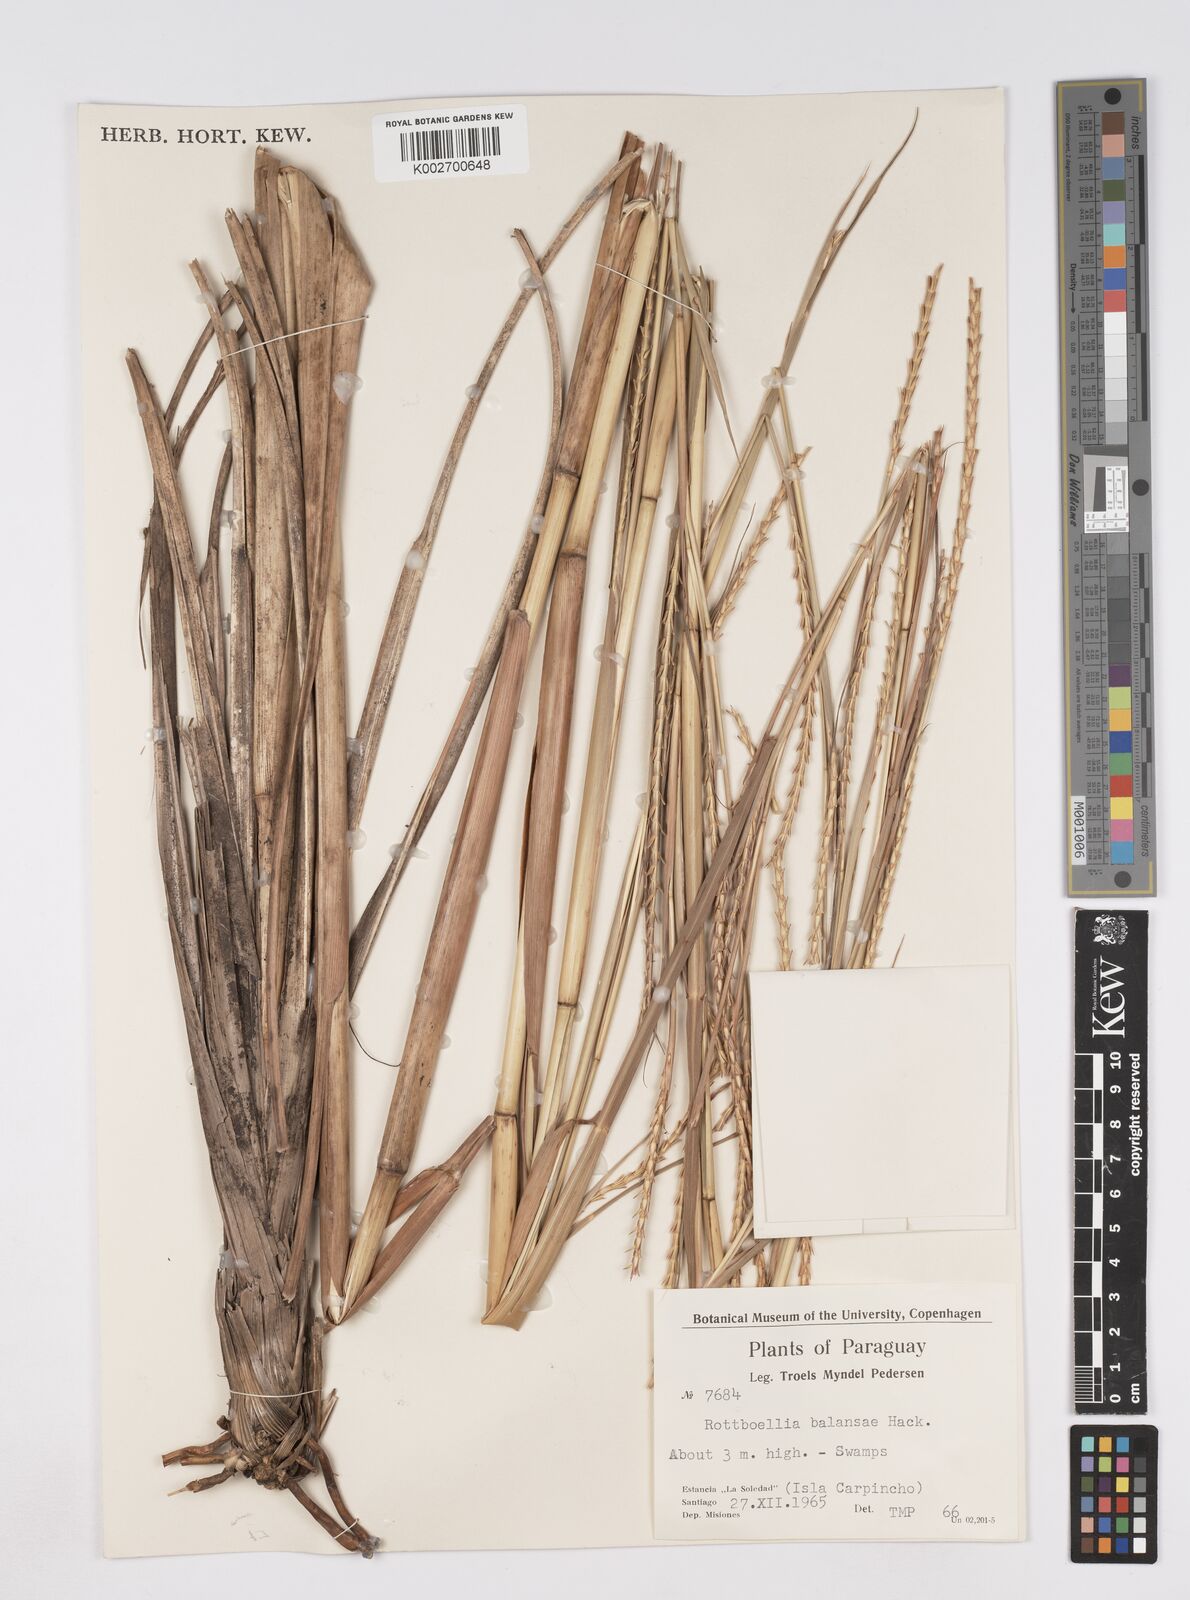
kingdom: Plantae
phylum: Tracheophyta
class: Liliopsida
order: Poales
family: Poaceae
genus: Rottboellia
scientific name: Rottboellia balansae
